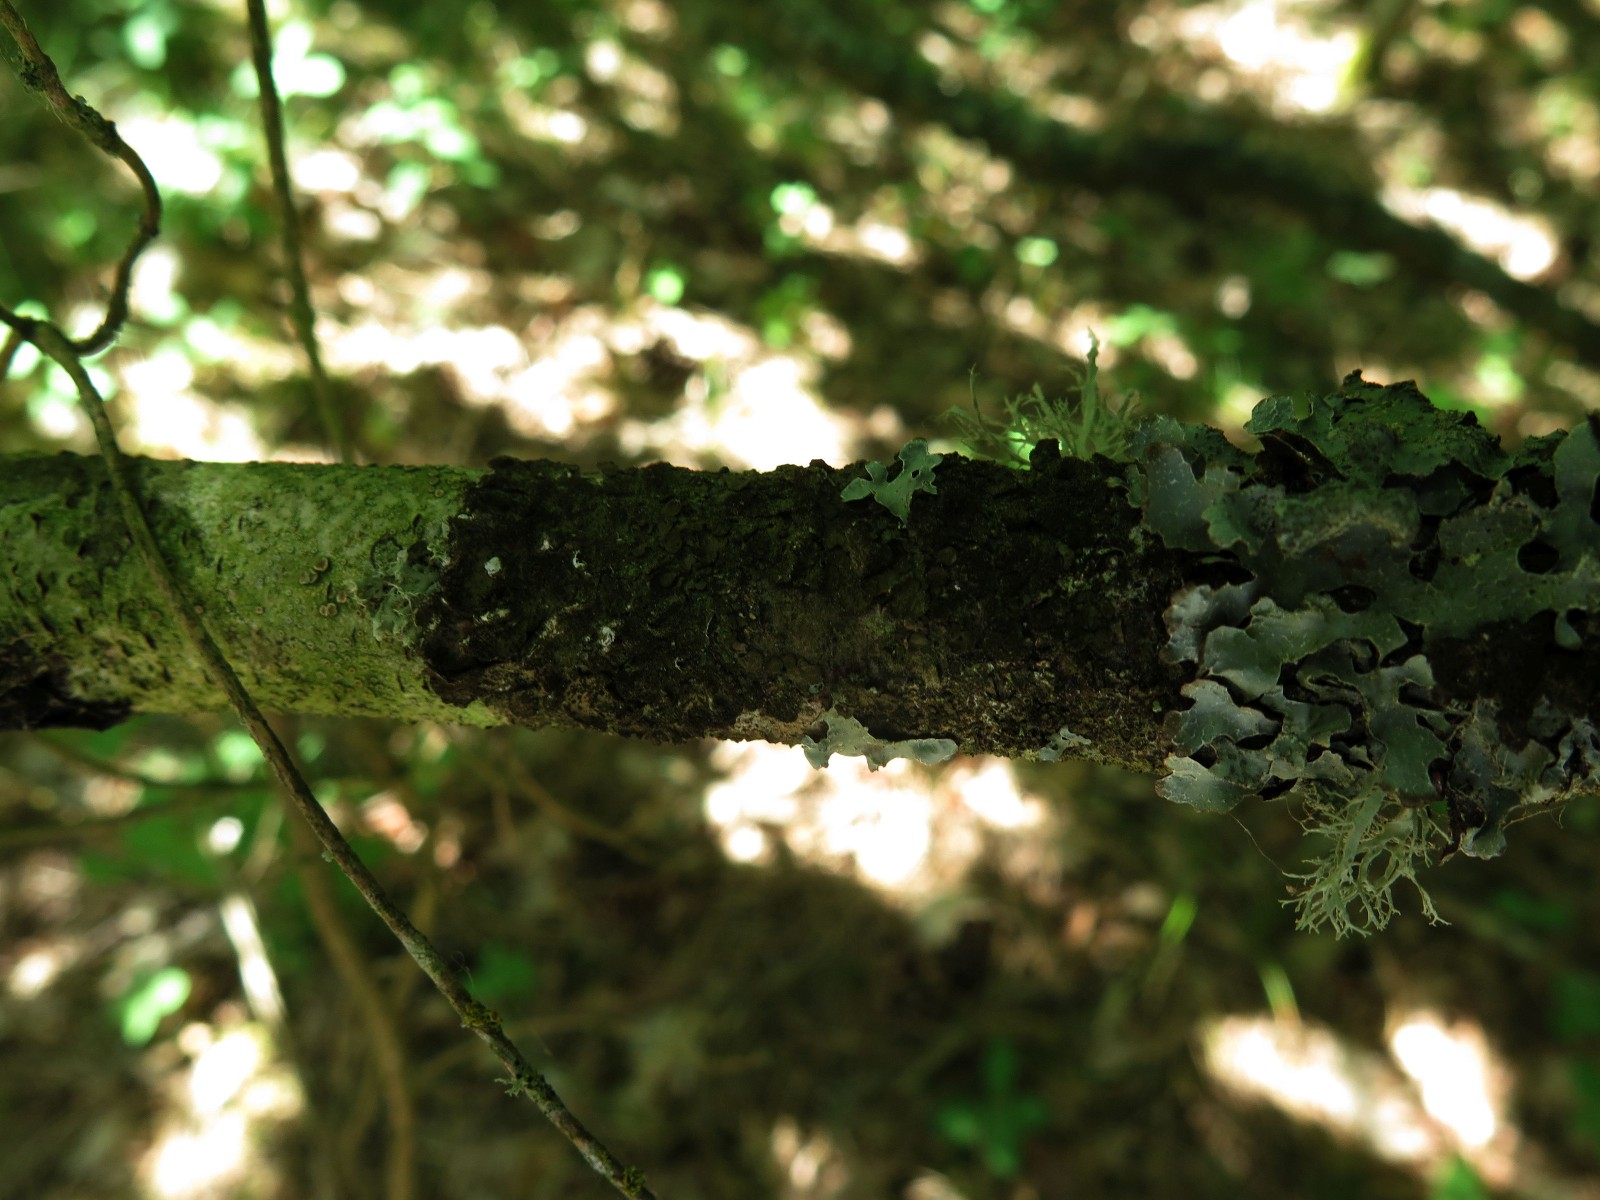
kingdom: Fungi
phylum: Ascomycota
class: Lecanoromycetes
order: Lecanorales
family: Parmeliaceae
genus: Melanelixia
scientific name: Melanelixia subaurifera
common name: guldpudret skållav
